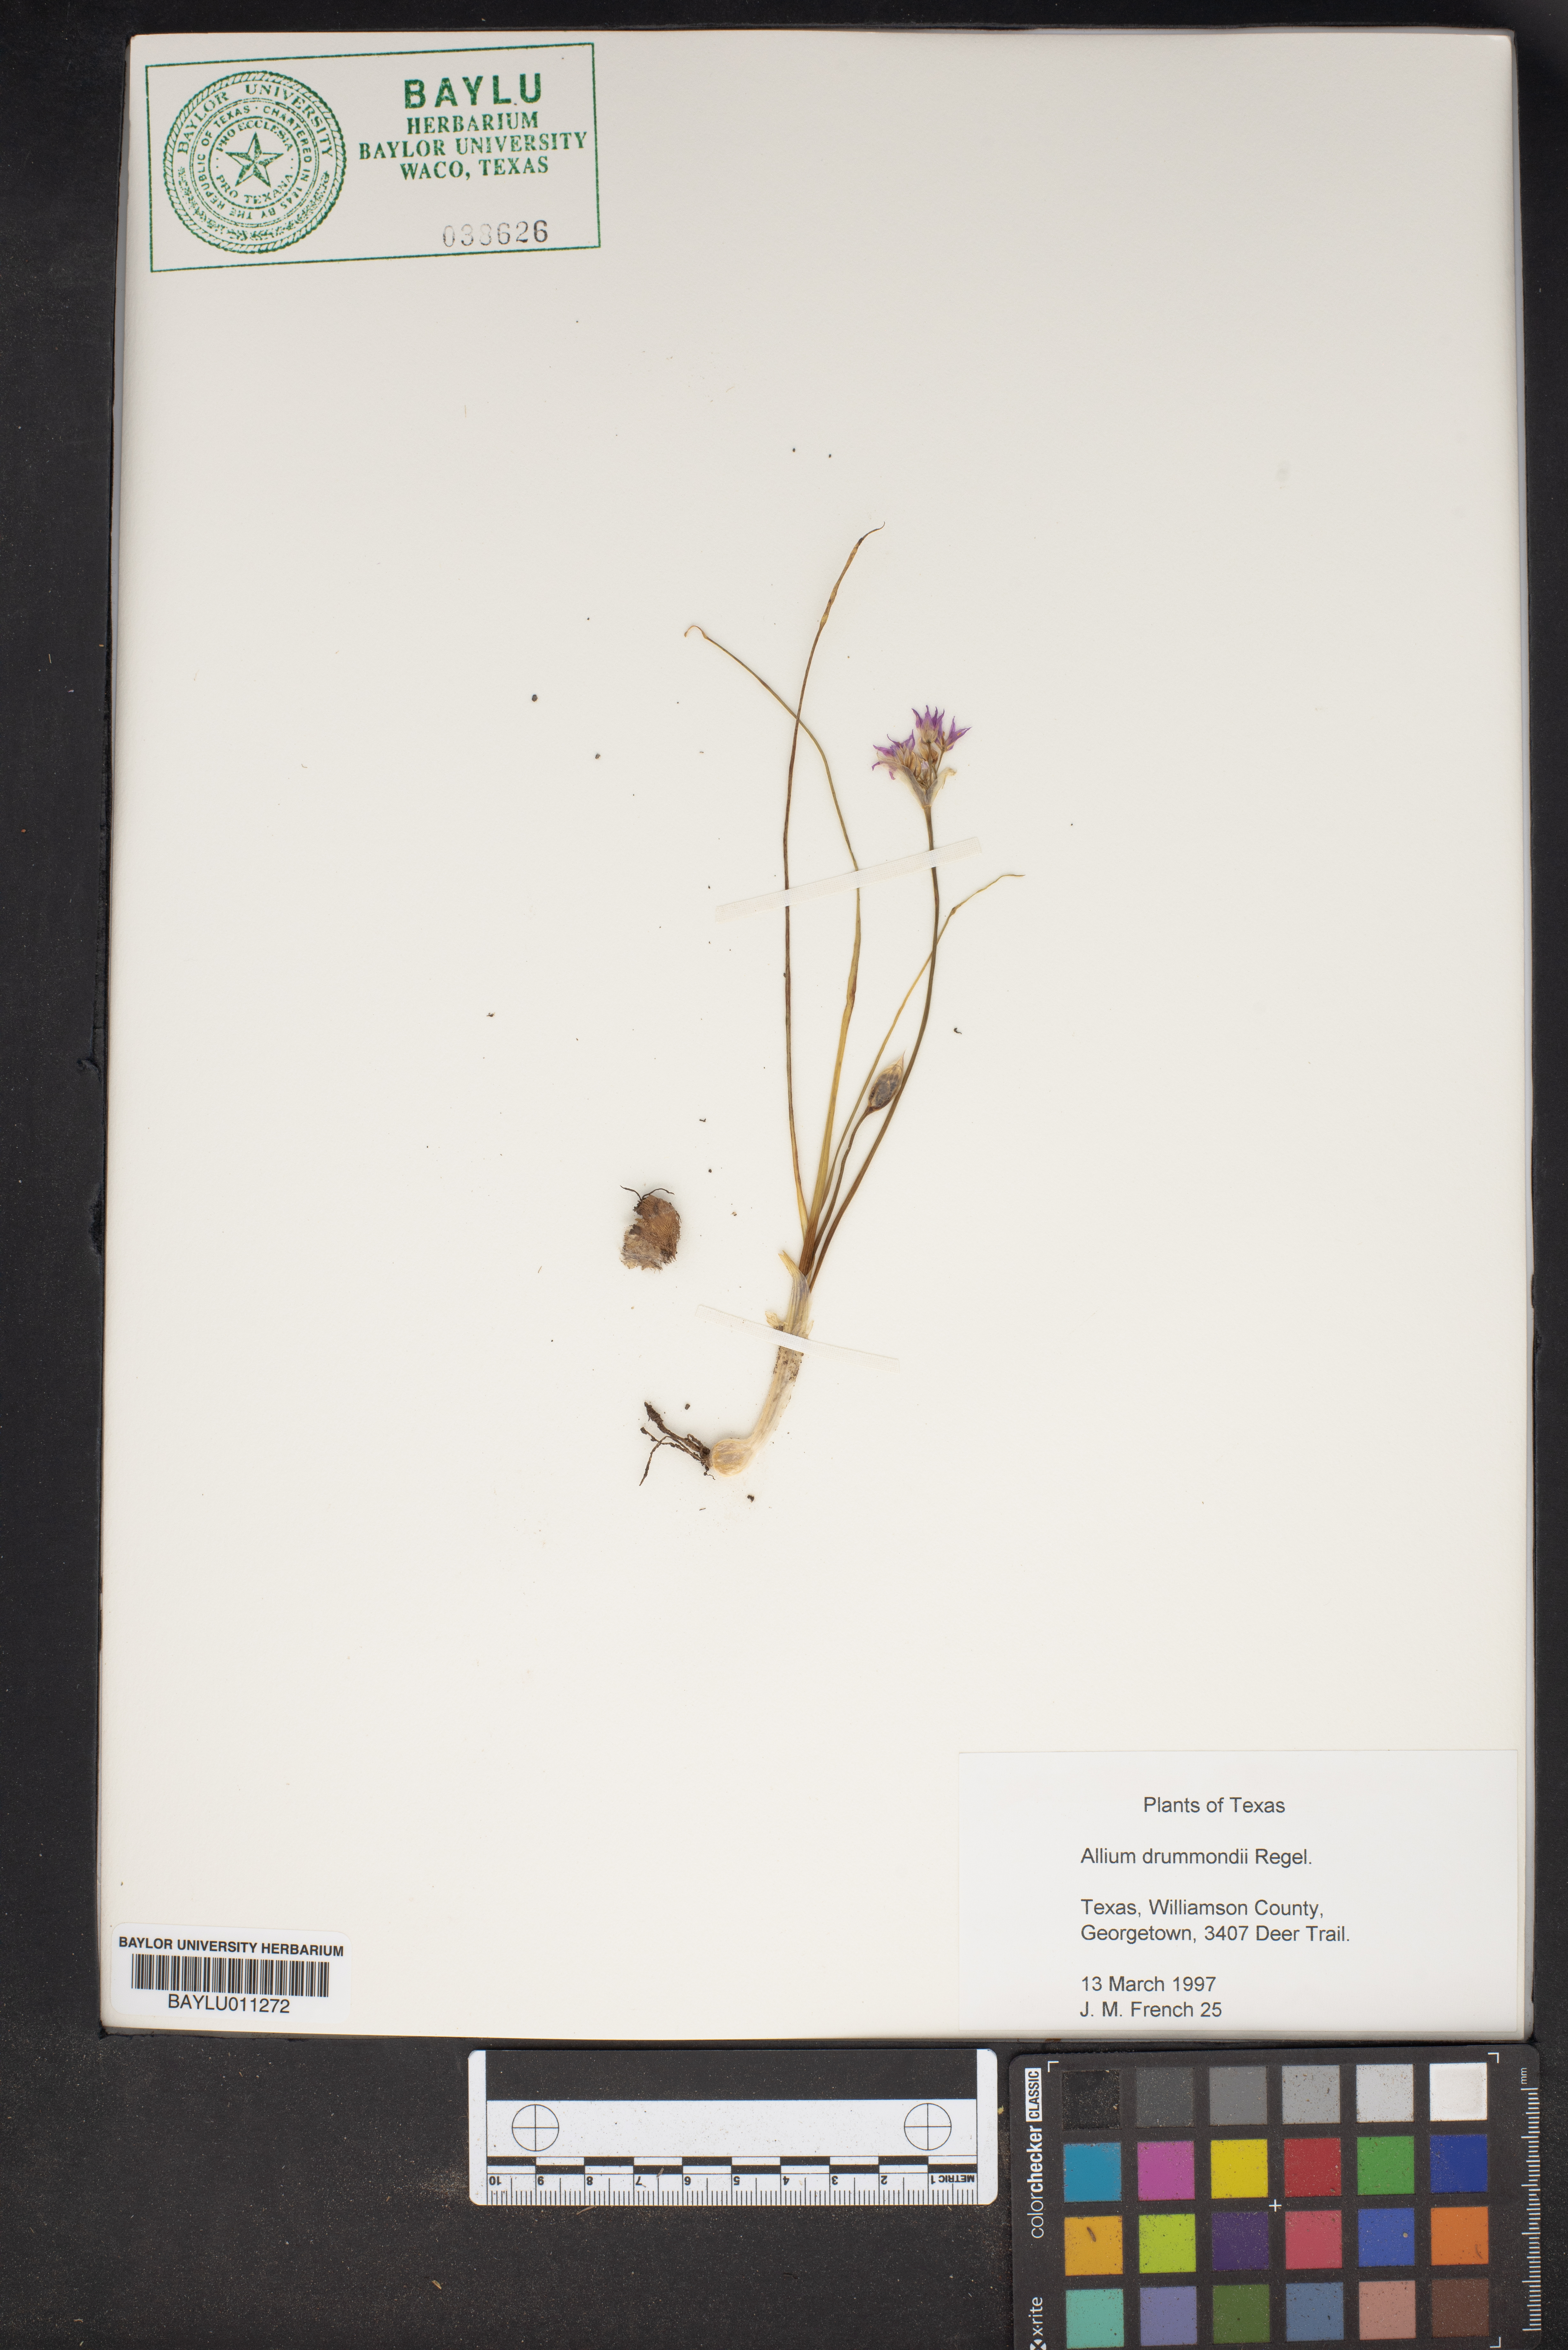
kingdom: Plantae
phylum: Tracheophyta
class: Liliopsida
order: Asparagales
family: Amaryllidaceae
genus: Allium
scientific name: Allium drummondii
